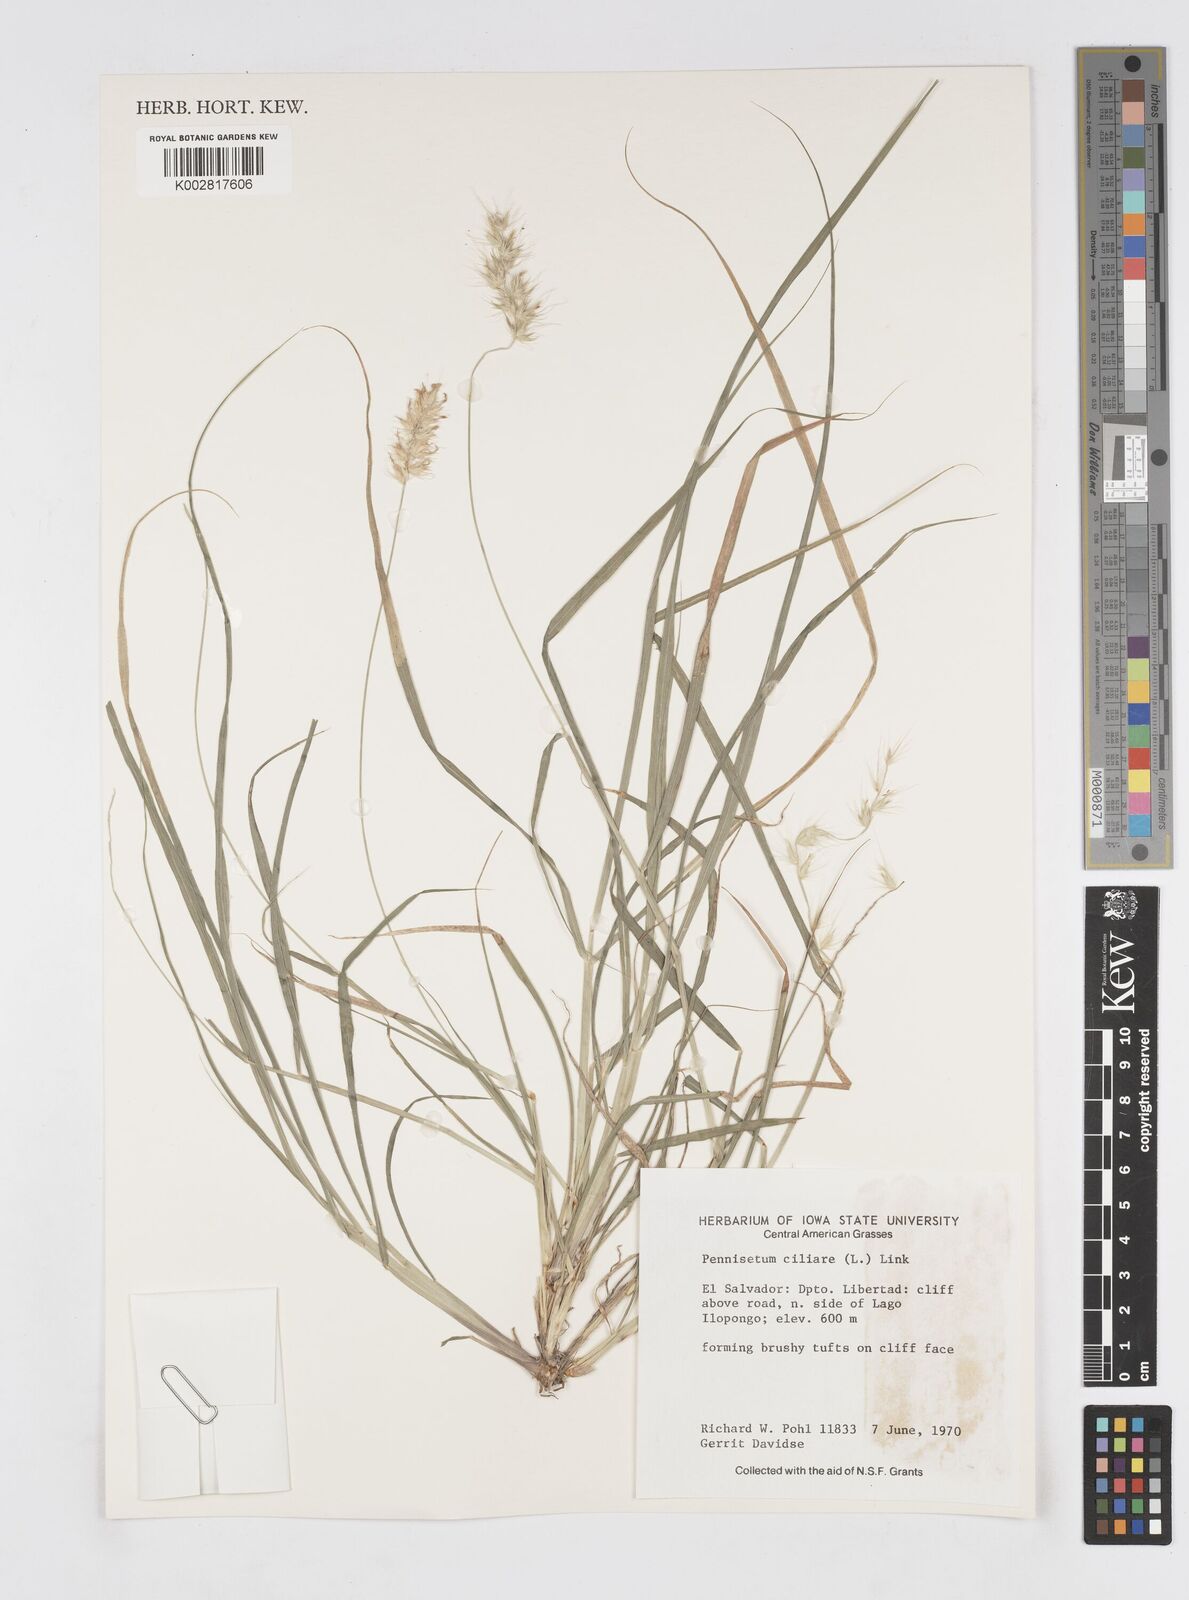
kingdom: Plantae
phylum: Tracheophyta
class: Liliopsida
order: Poales
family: Poaceae
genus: Cenchrus
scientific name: Cenchrus ciliaris
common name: Buffelgrass
